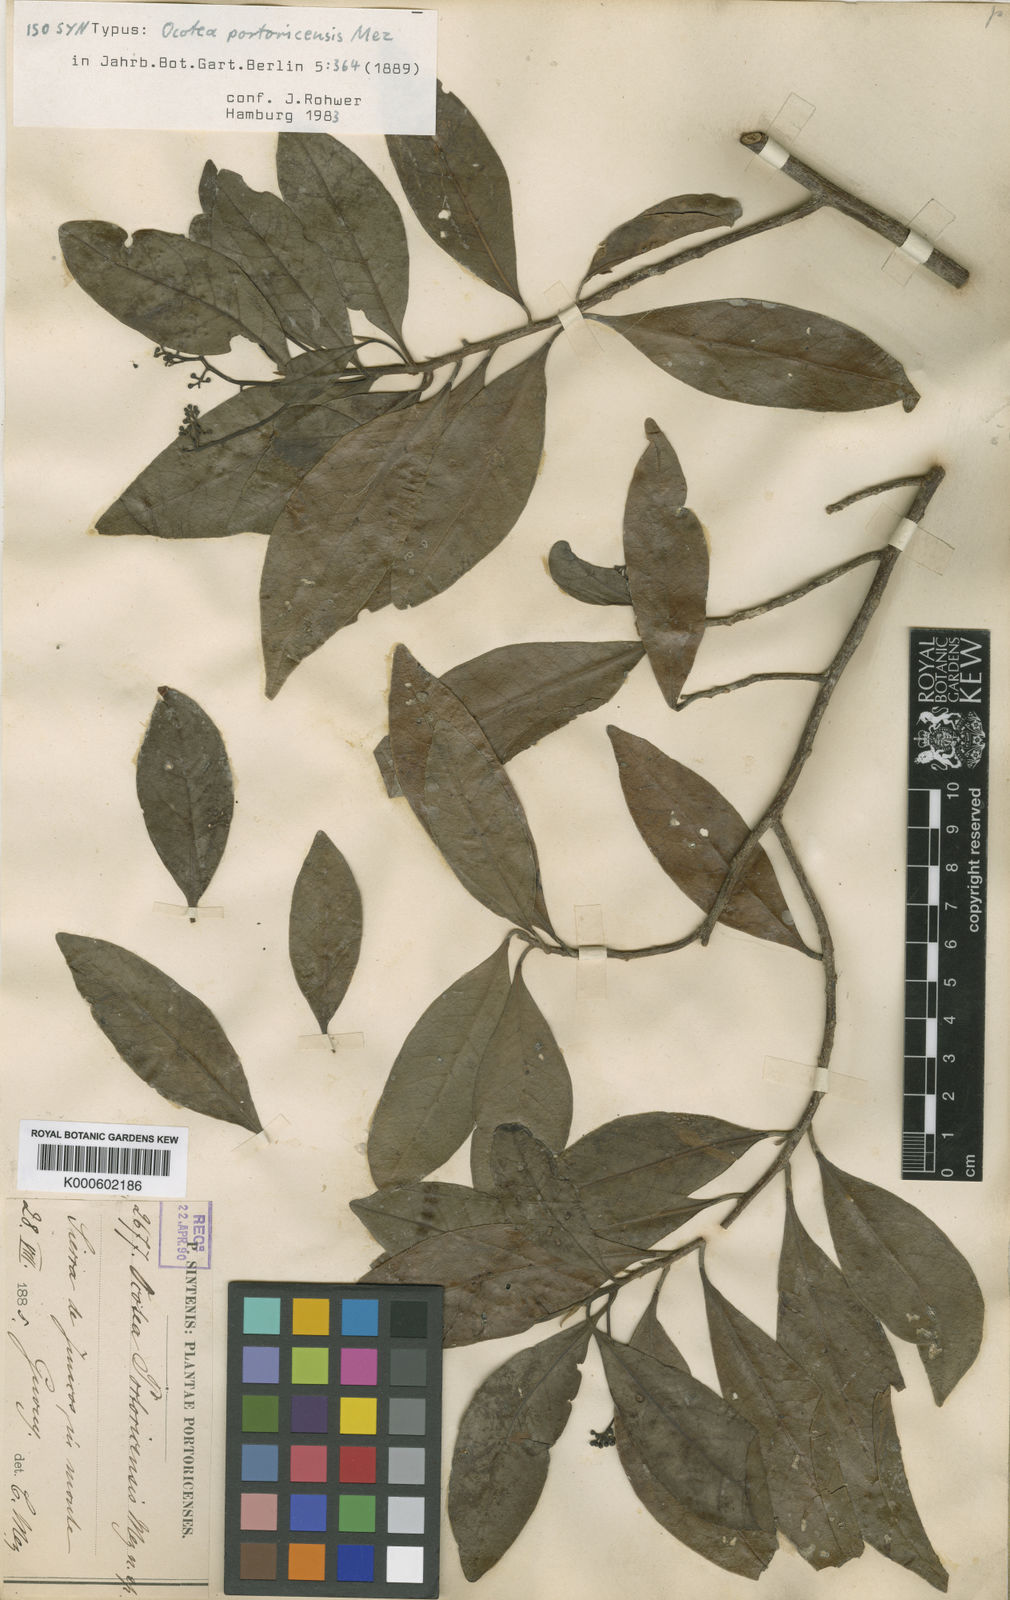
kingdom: Plantae
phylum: Tracheophyta
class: Magnoliopsida
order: Laurales
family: Lauraceae
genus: Ocotea
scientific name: Ocotea portoricensis
